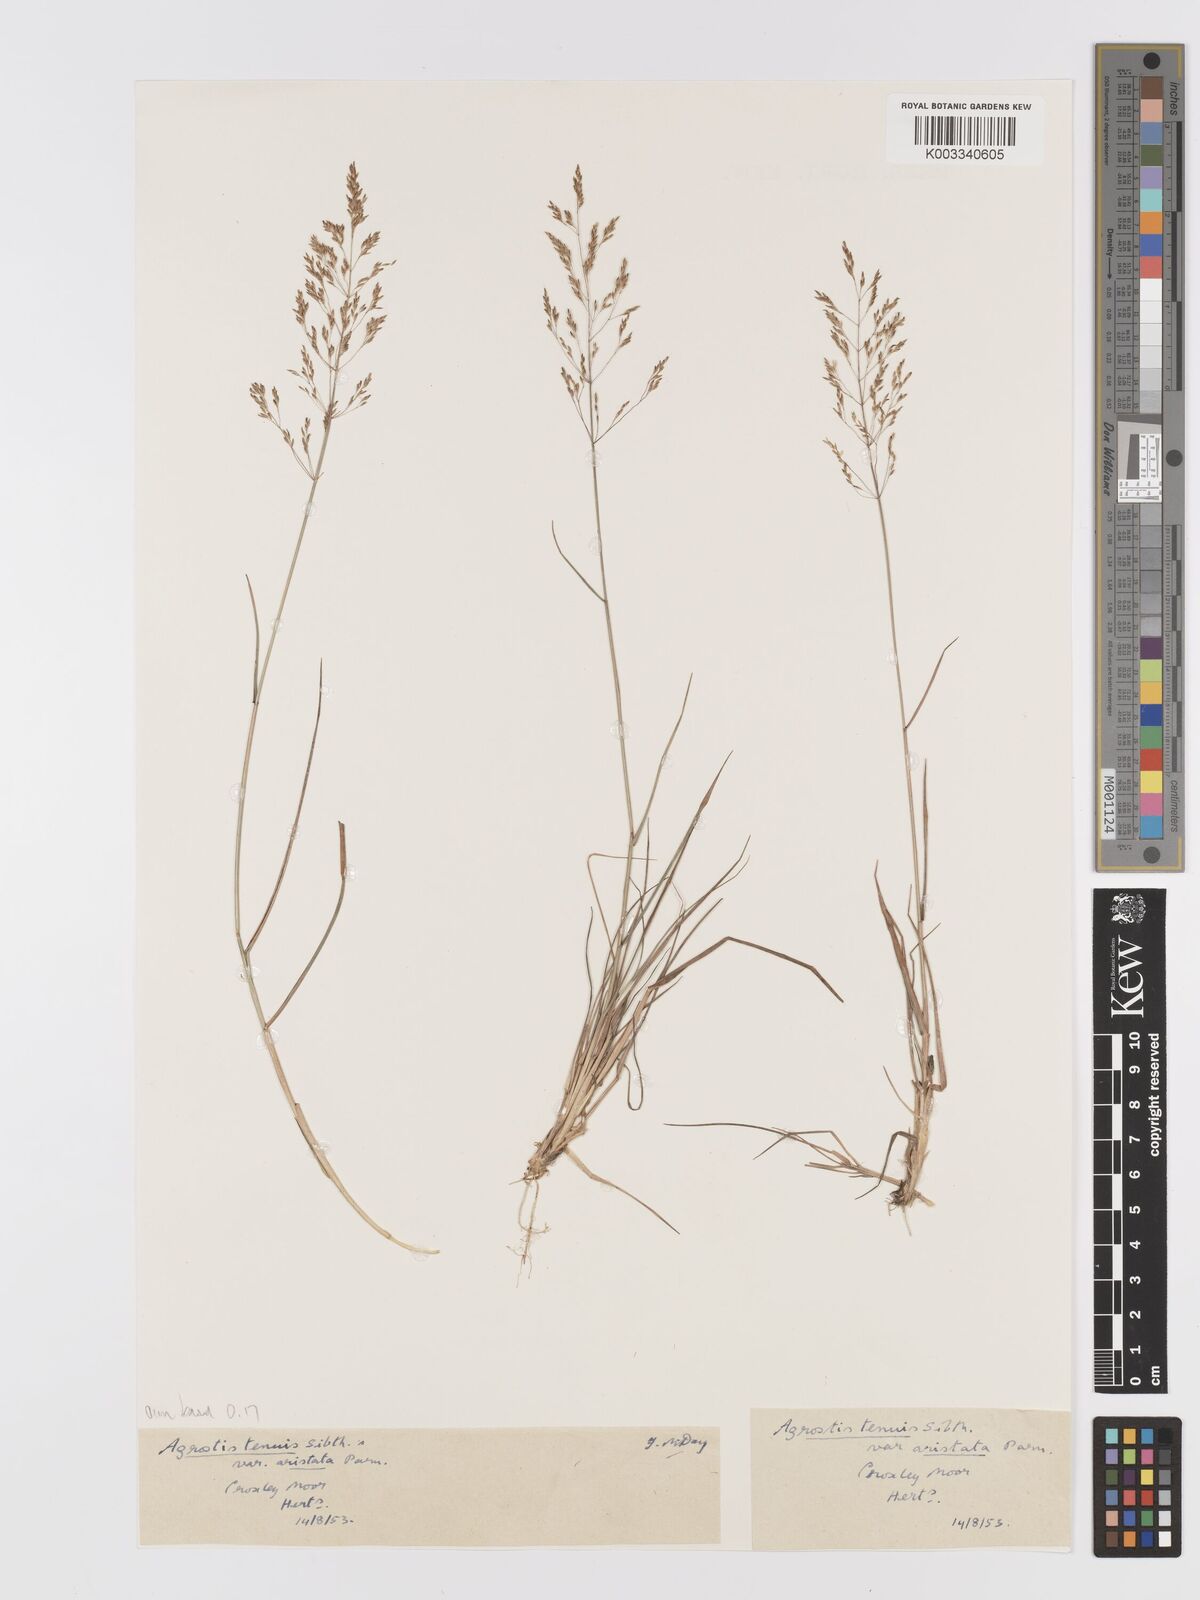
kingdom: Plantae
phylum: Tracheophyta
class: Liliopsida
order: Poales
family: Poaceae
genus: Agrostis
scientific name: Agrostis capillaris
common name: Colonial bentgrass
